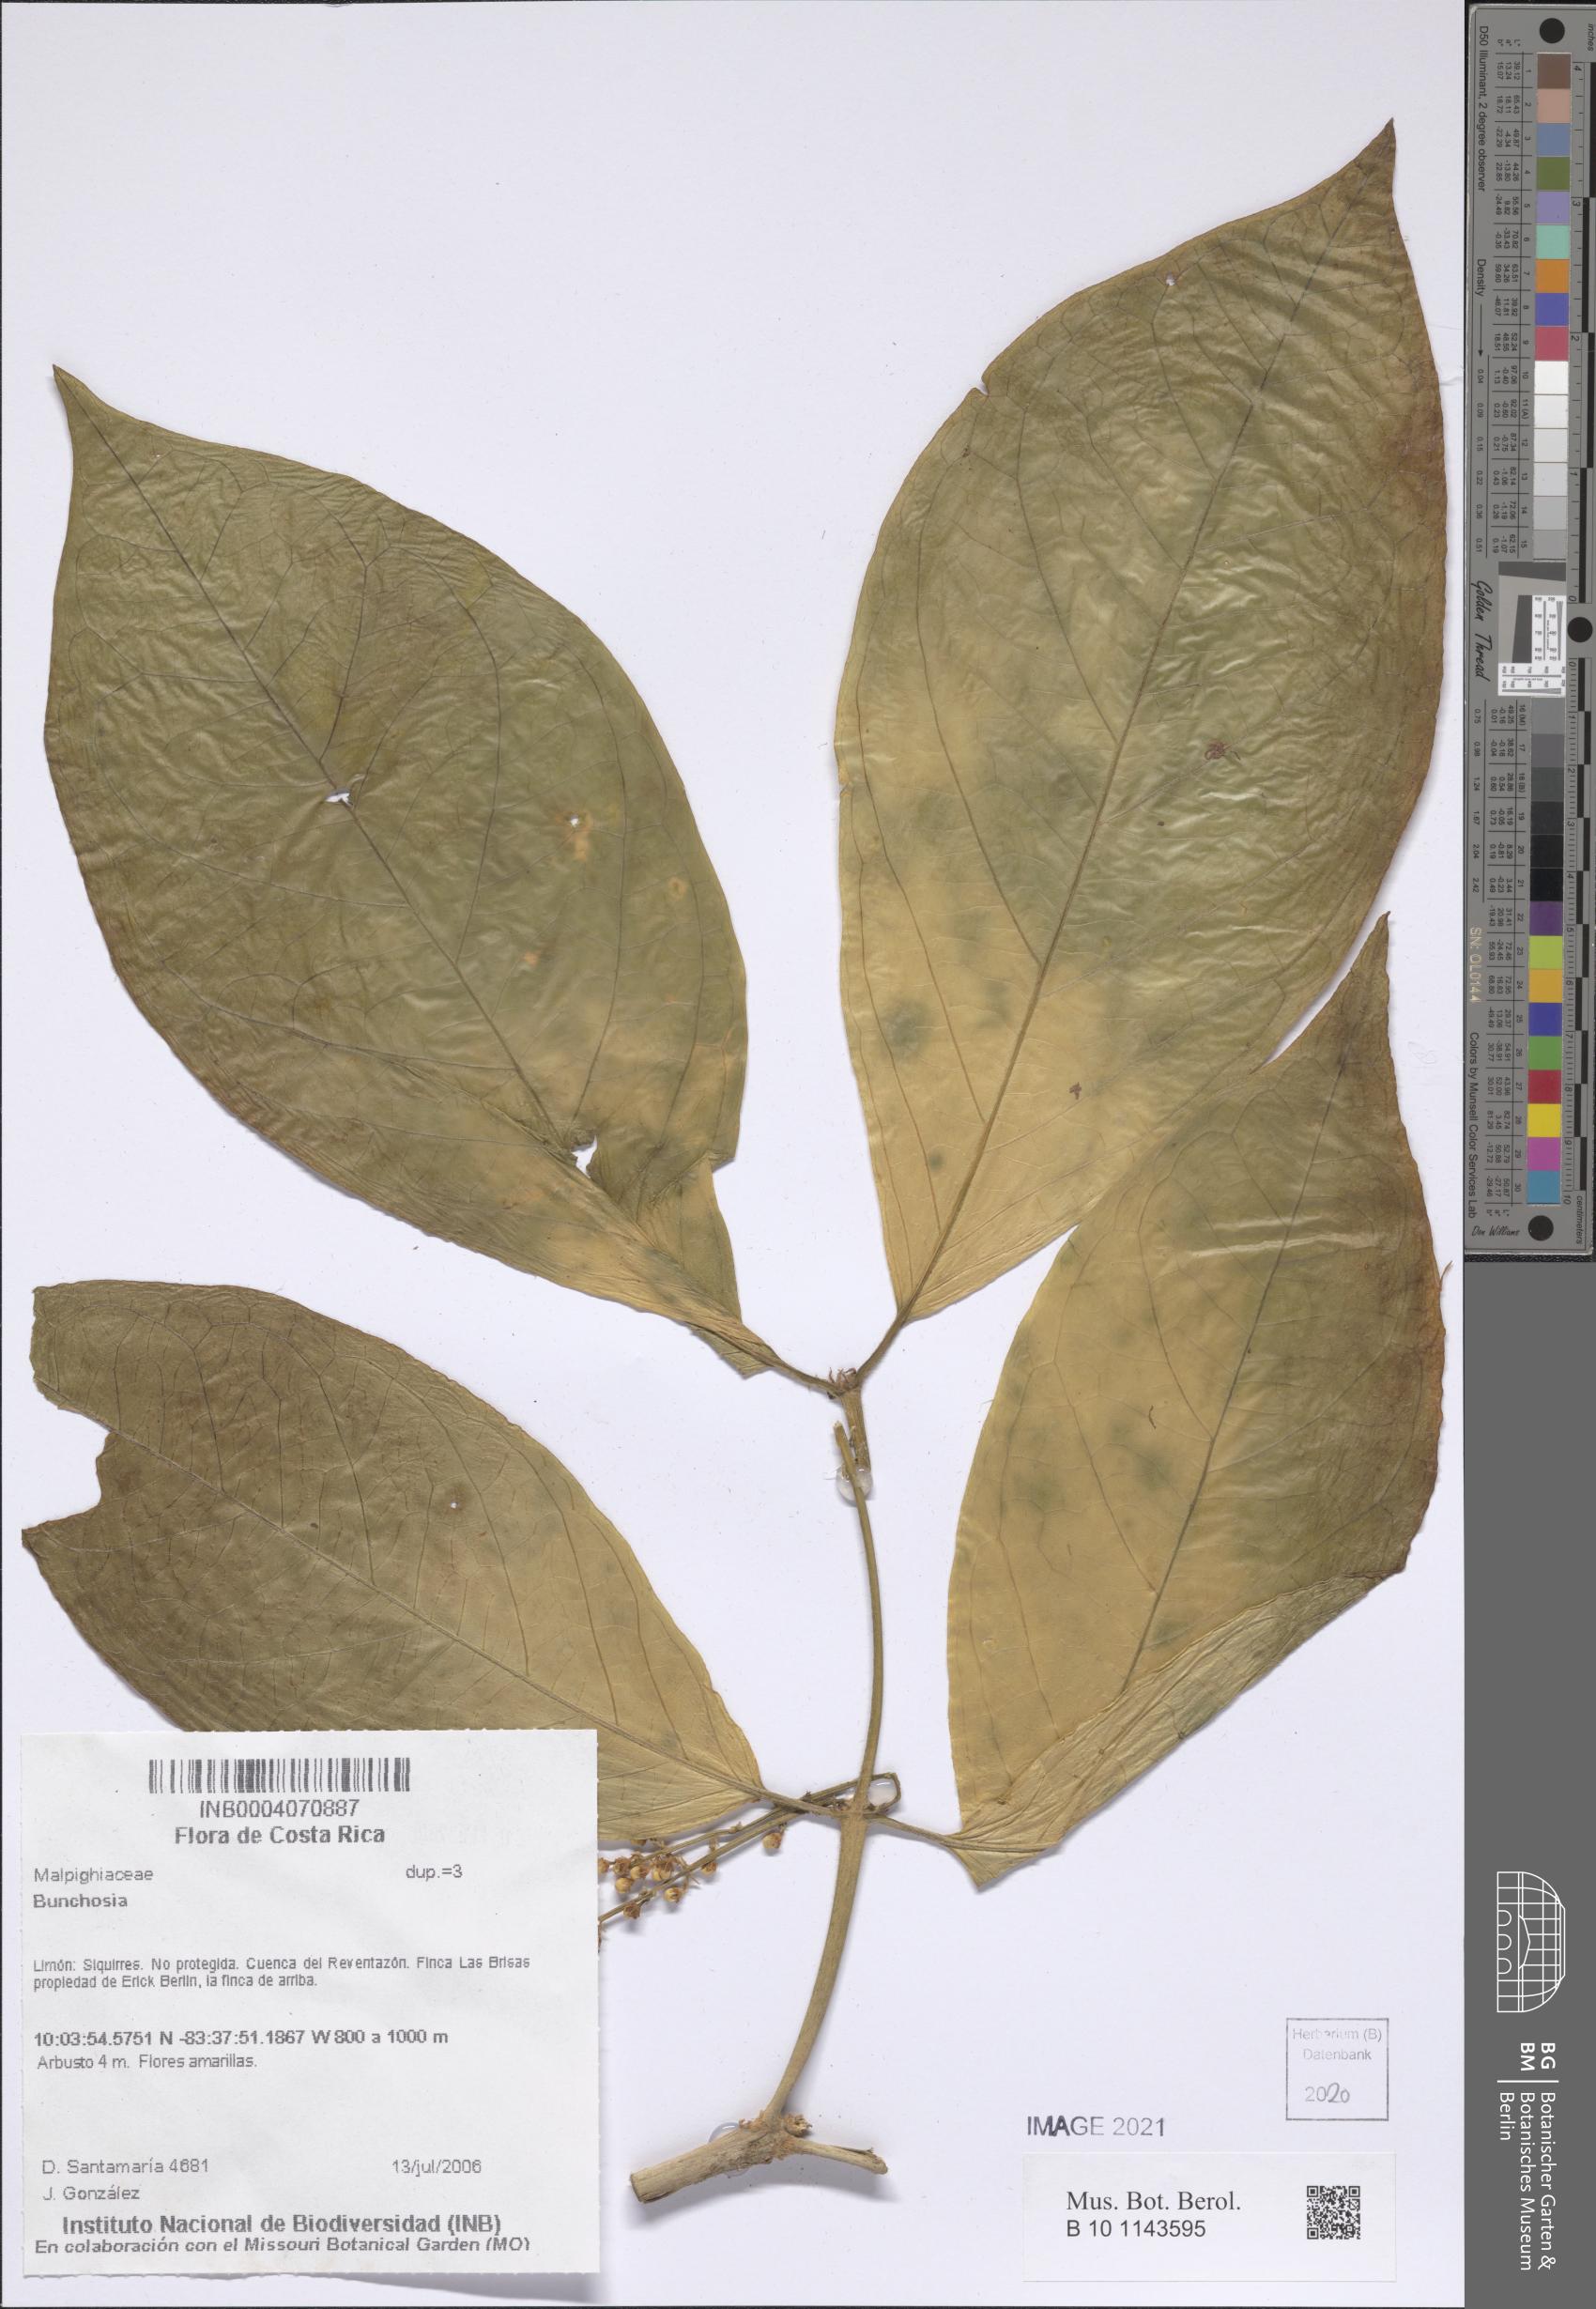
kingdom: Plantae
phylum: Tracheophyta
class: Magnoliopsida
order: Malpighiales
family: Malpighiaceae
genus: Bunchosia
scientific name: Bunchosia
